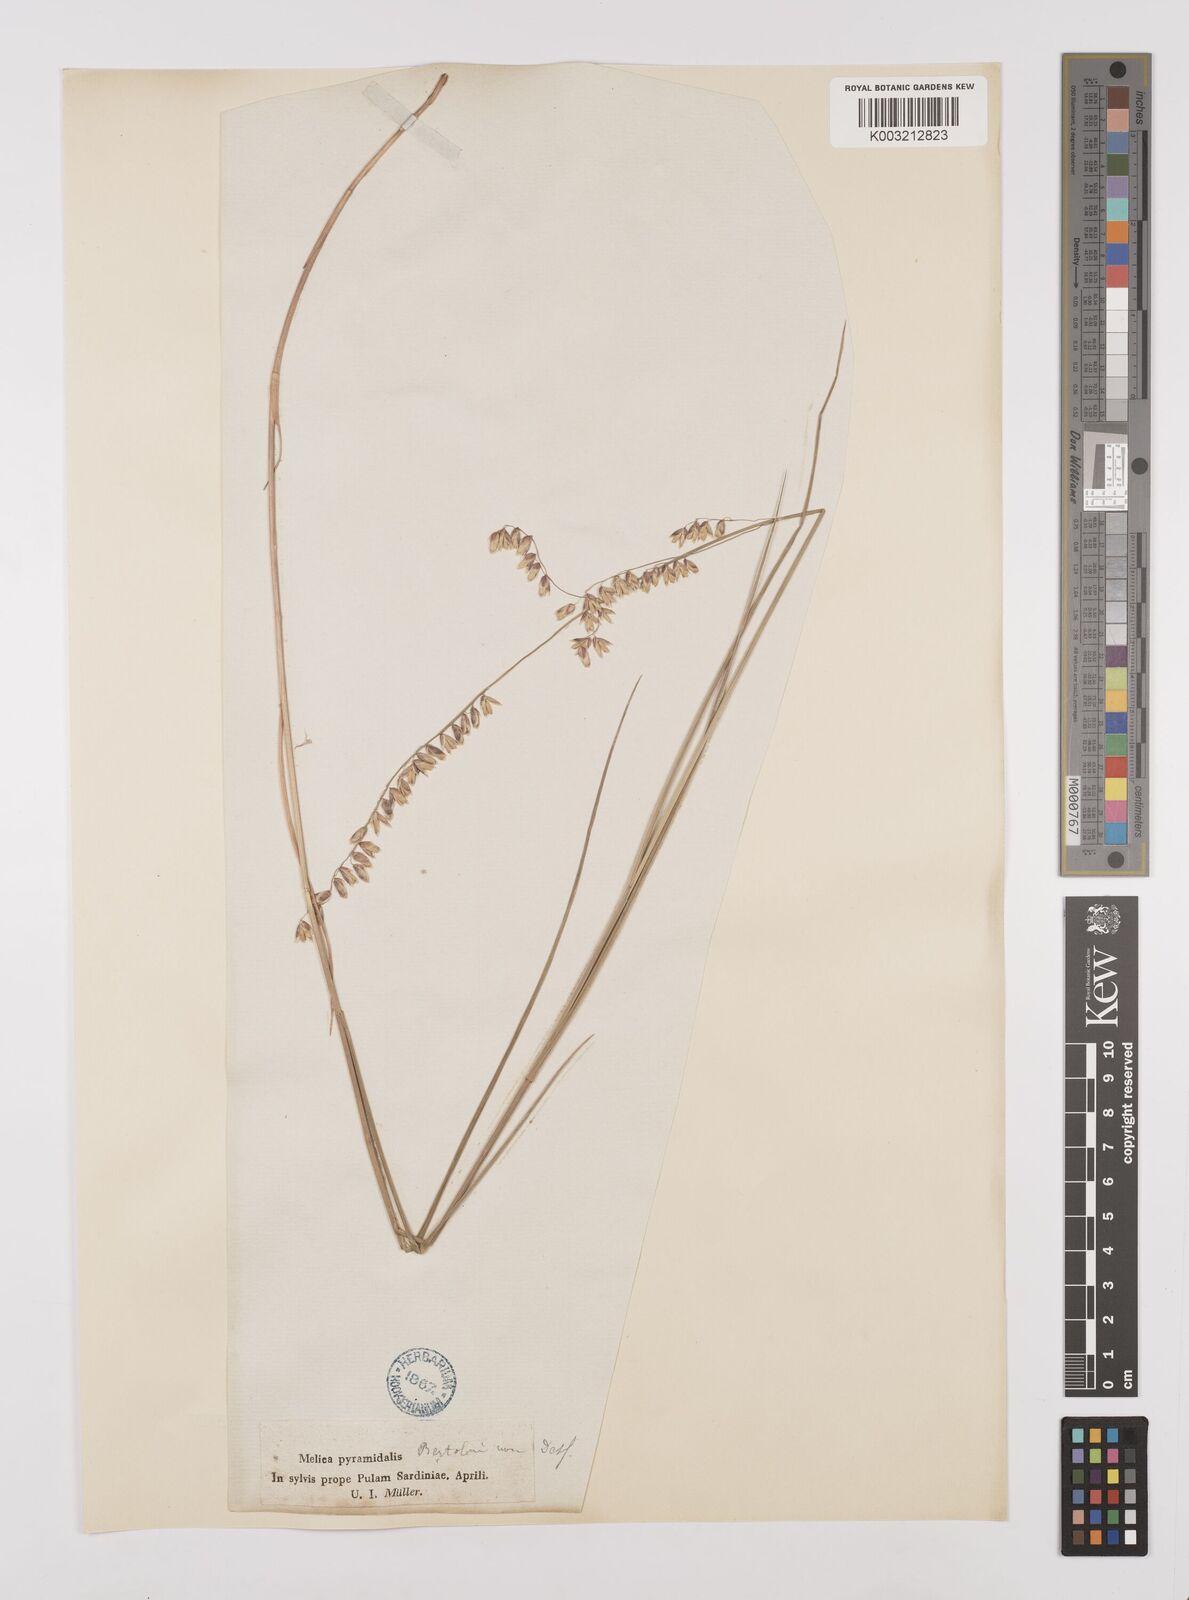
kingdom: Plantae
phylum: Tracheophyta
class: Liliopsida
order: Poales
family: Poaceae
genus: Melica
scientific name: Melica minuta
